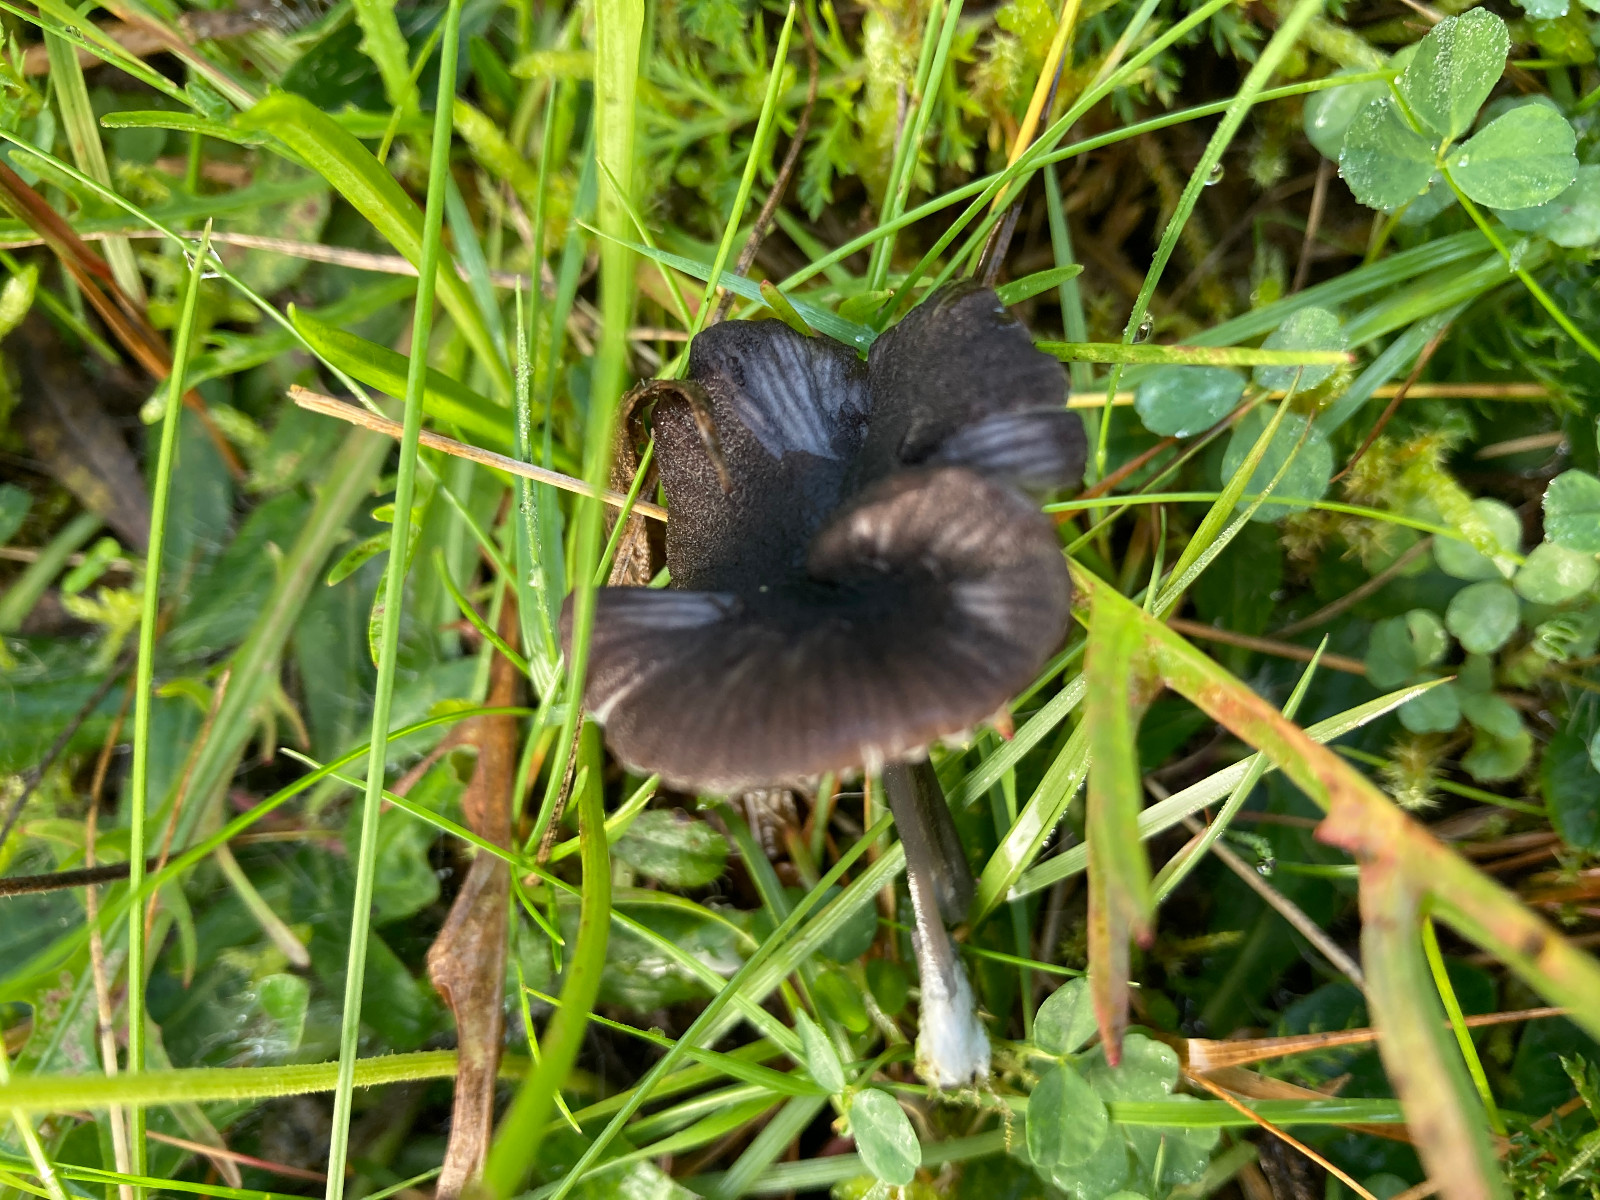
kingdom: Fungi
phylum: Basidiomycota
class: Agaricomycetes
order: Agaricales
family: Entolomataceae
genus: Entoloma
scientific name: Entoloma
